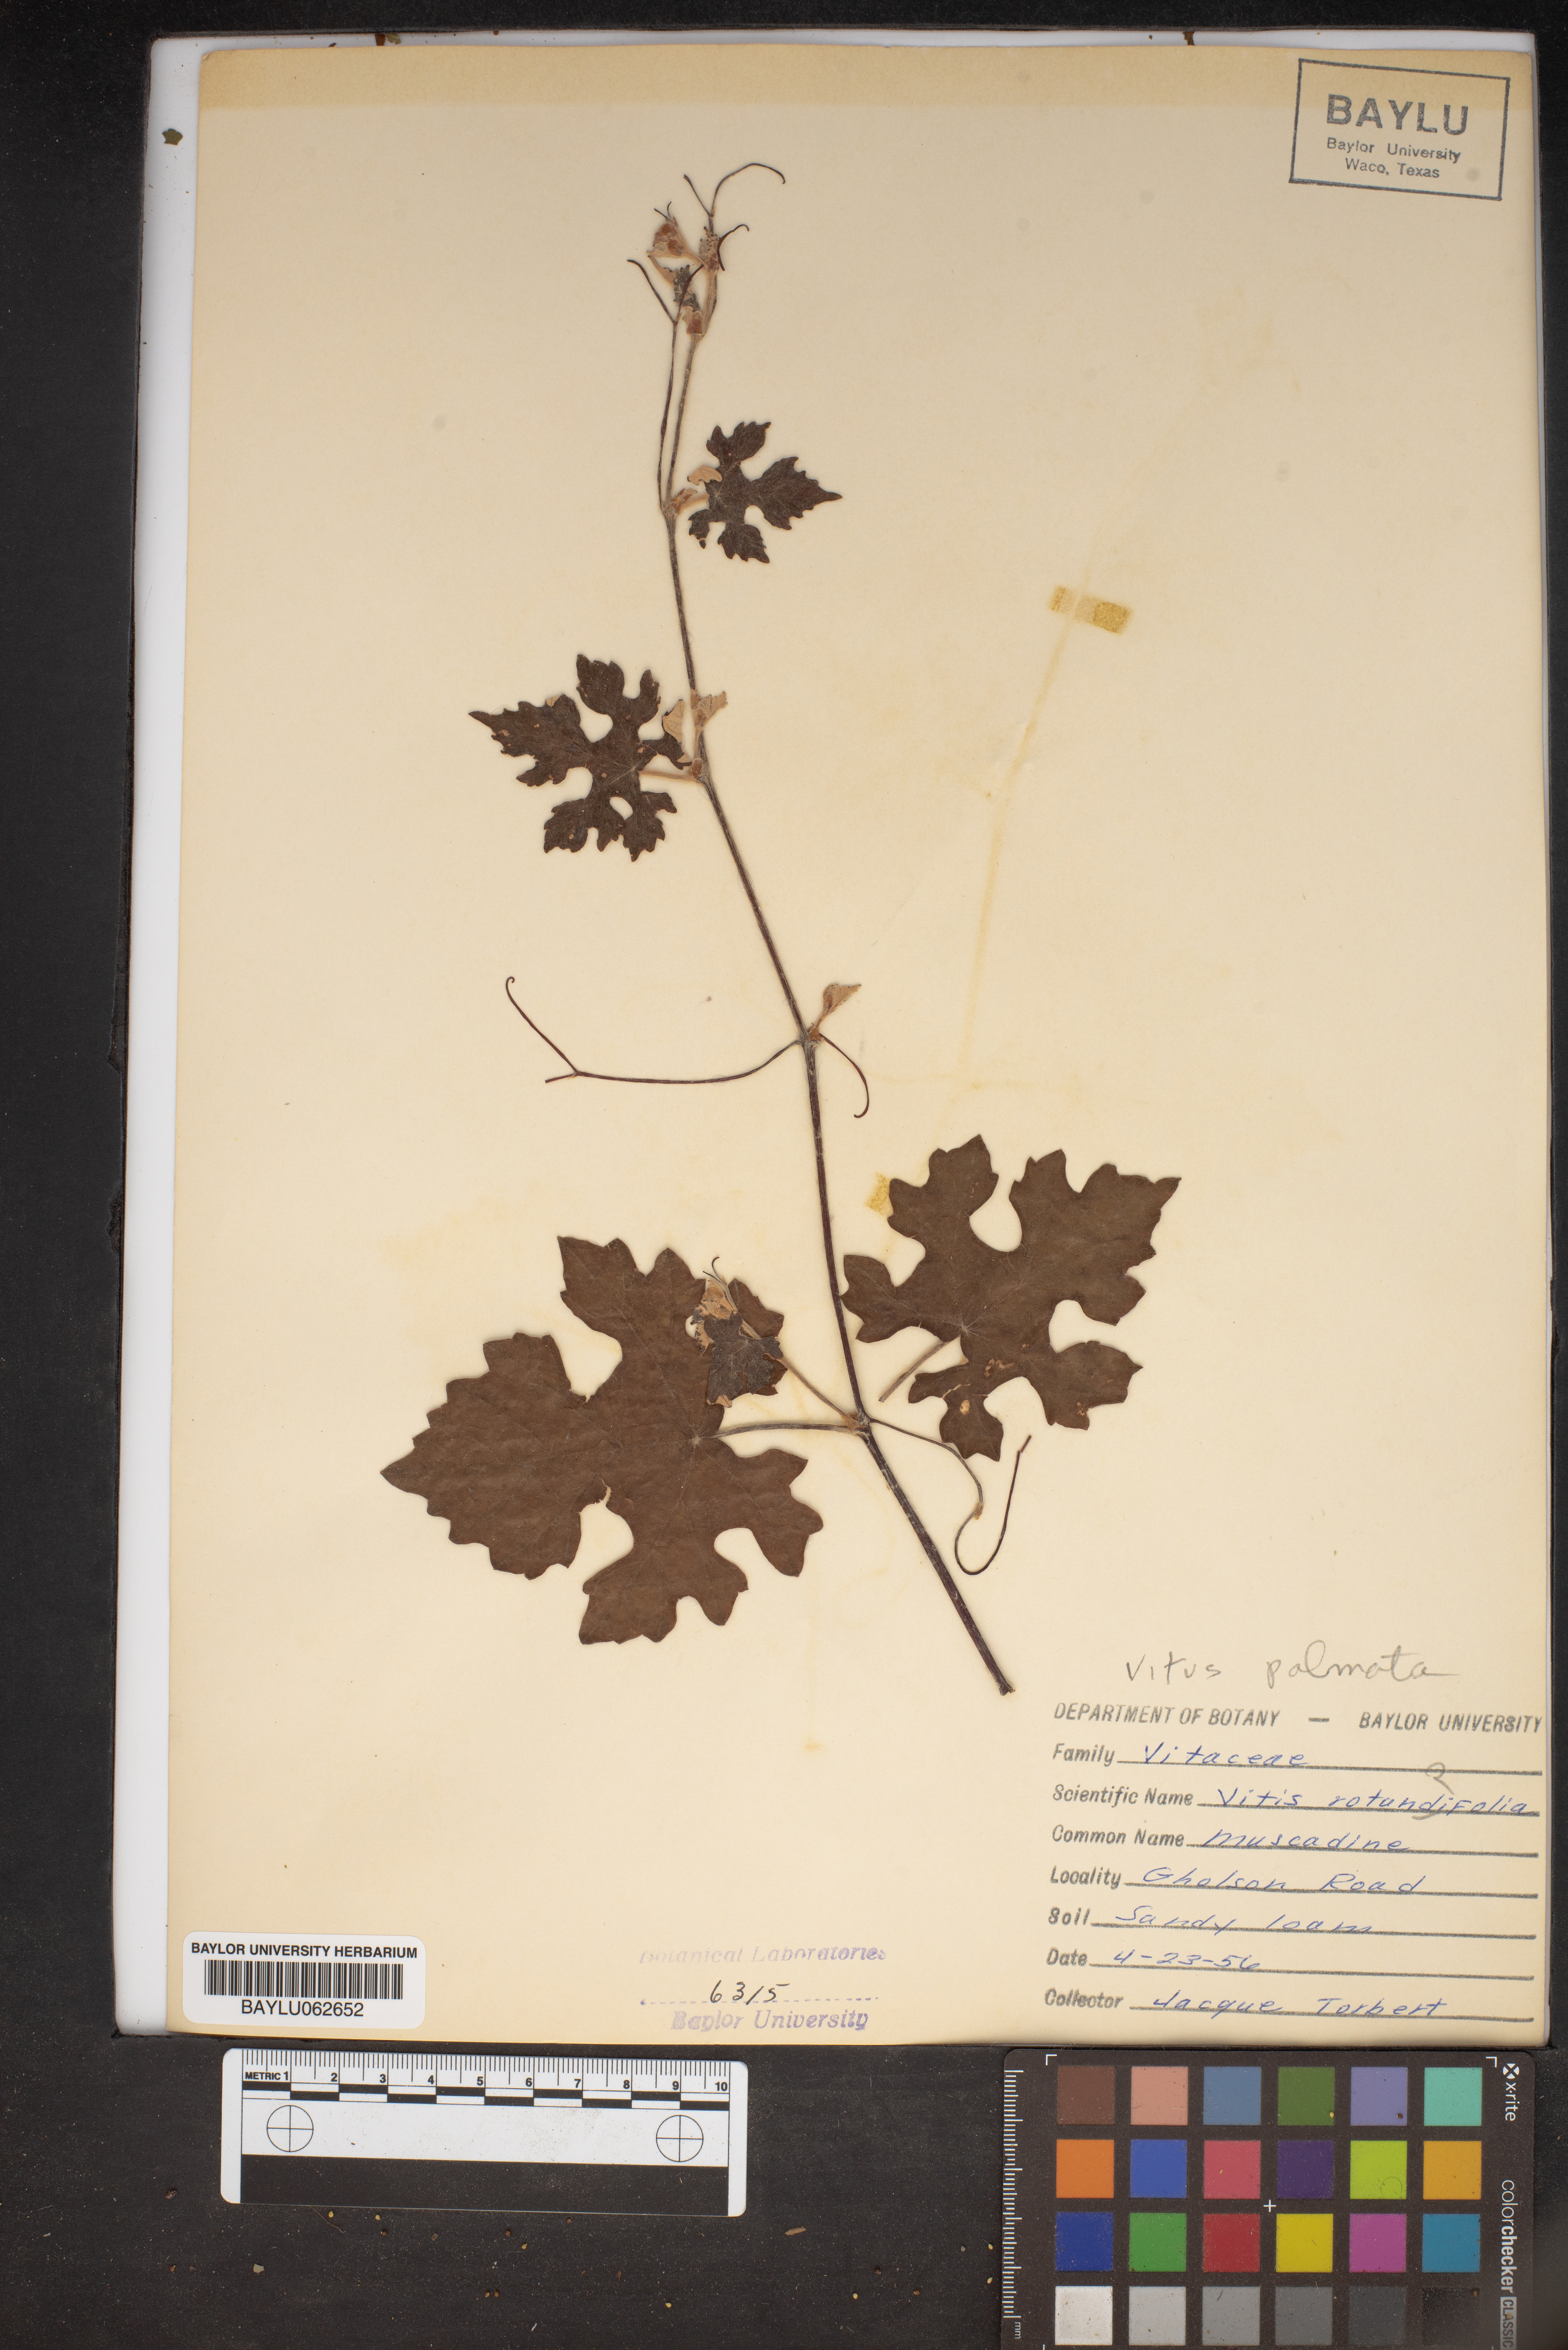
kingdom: Plantae
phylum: Tracheophyta
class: Magnoliopsida
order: Vitales
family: Vitaceae
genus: Vitis
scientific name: Vitis rotundifolia
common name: Muscadine grape
